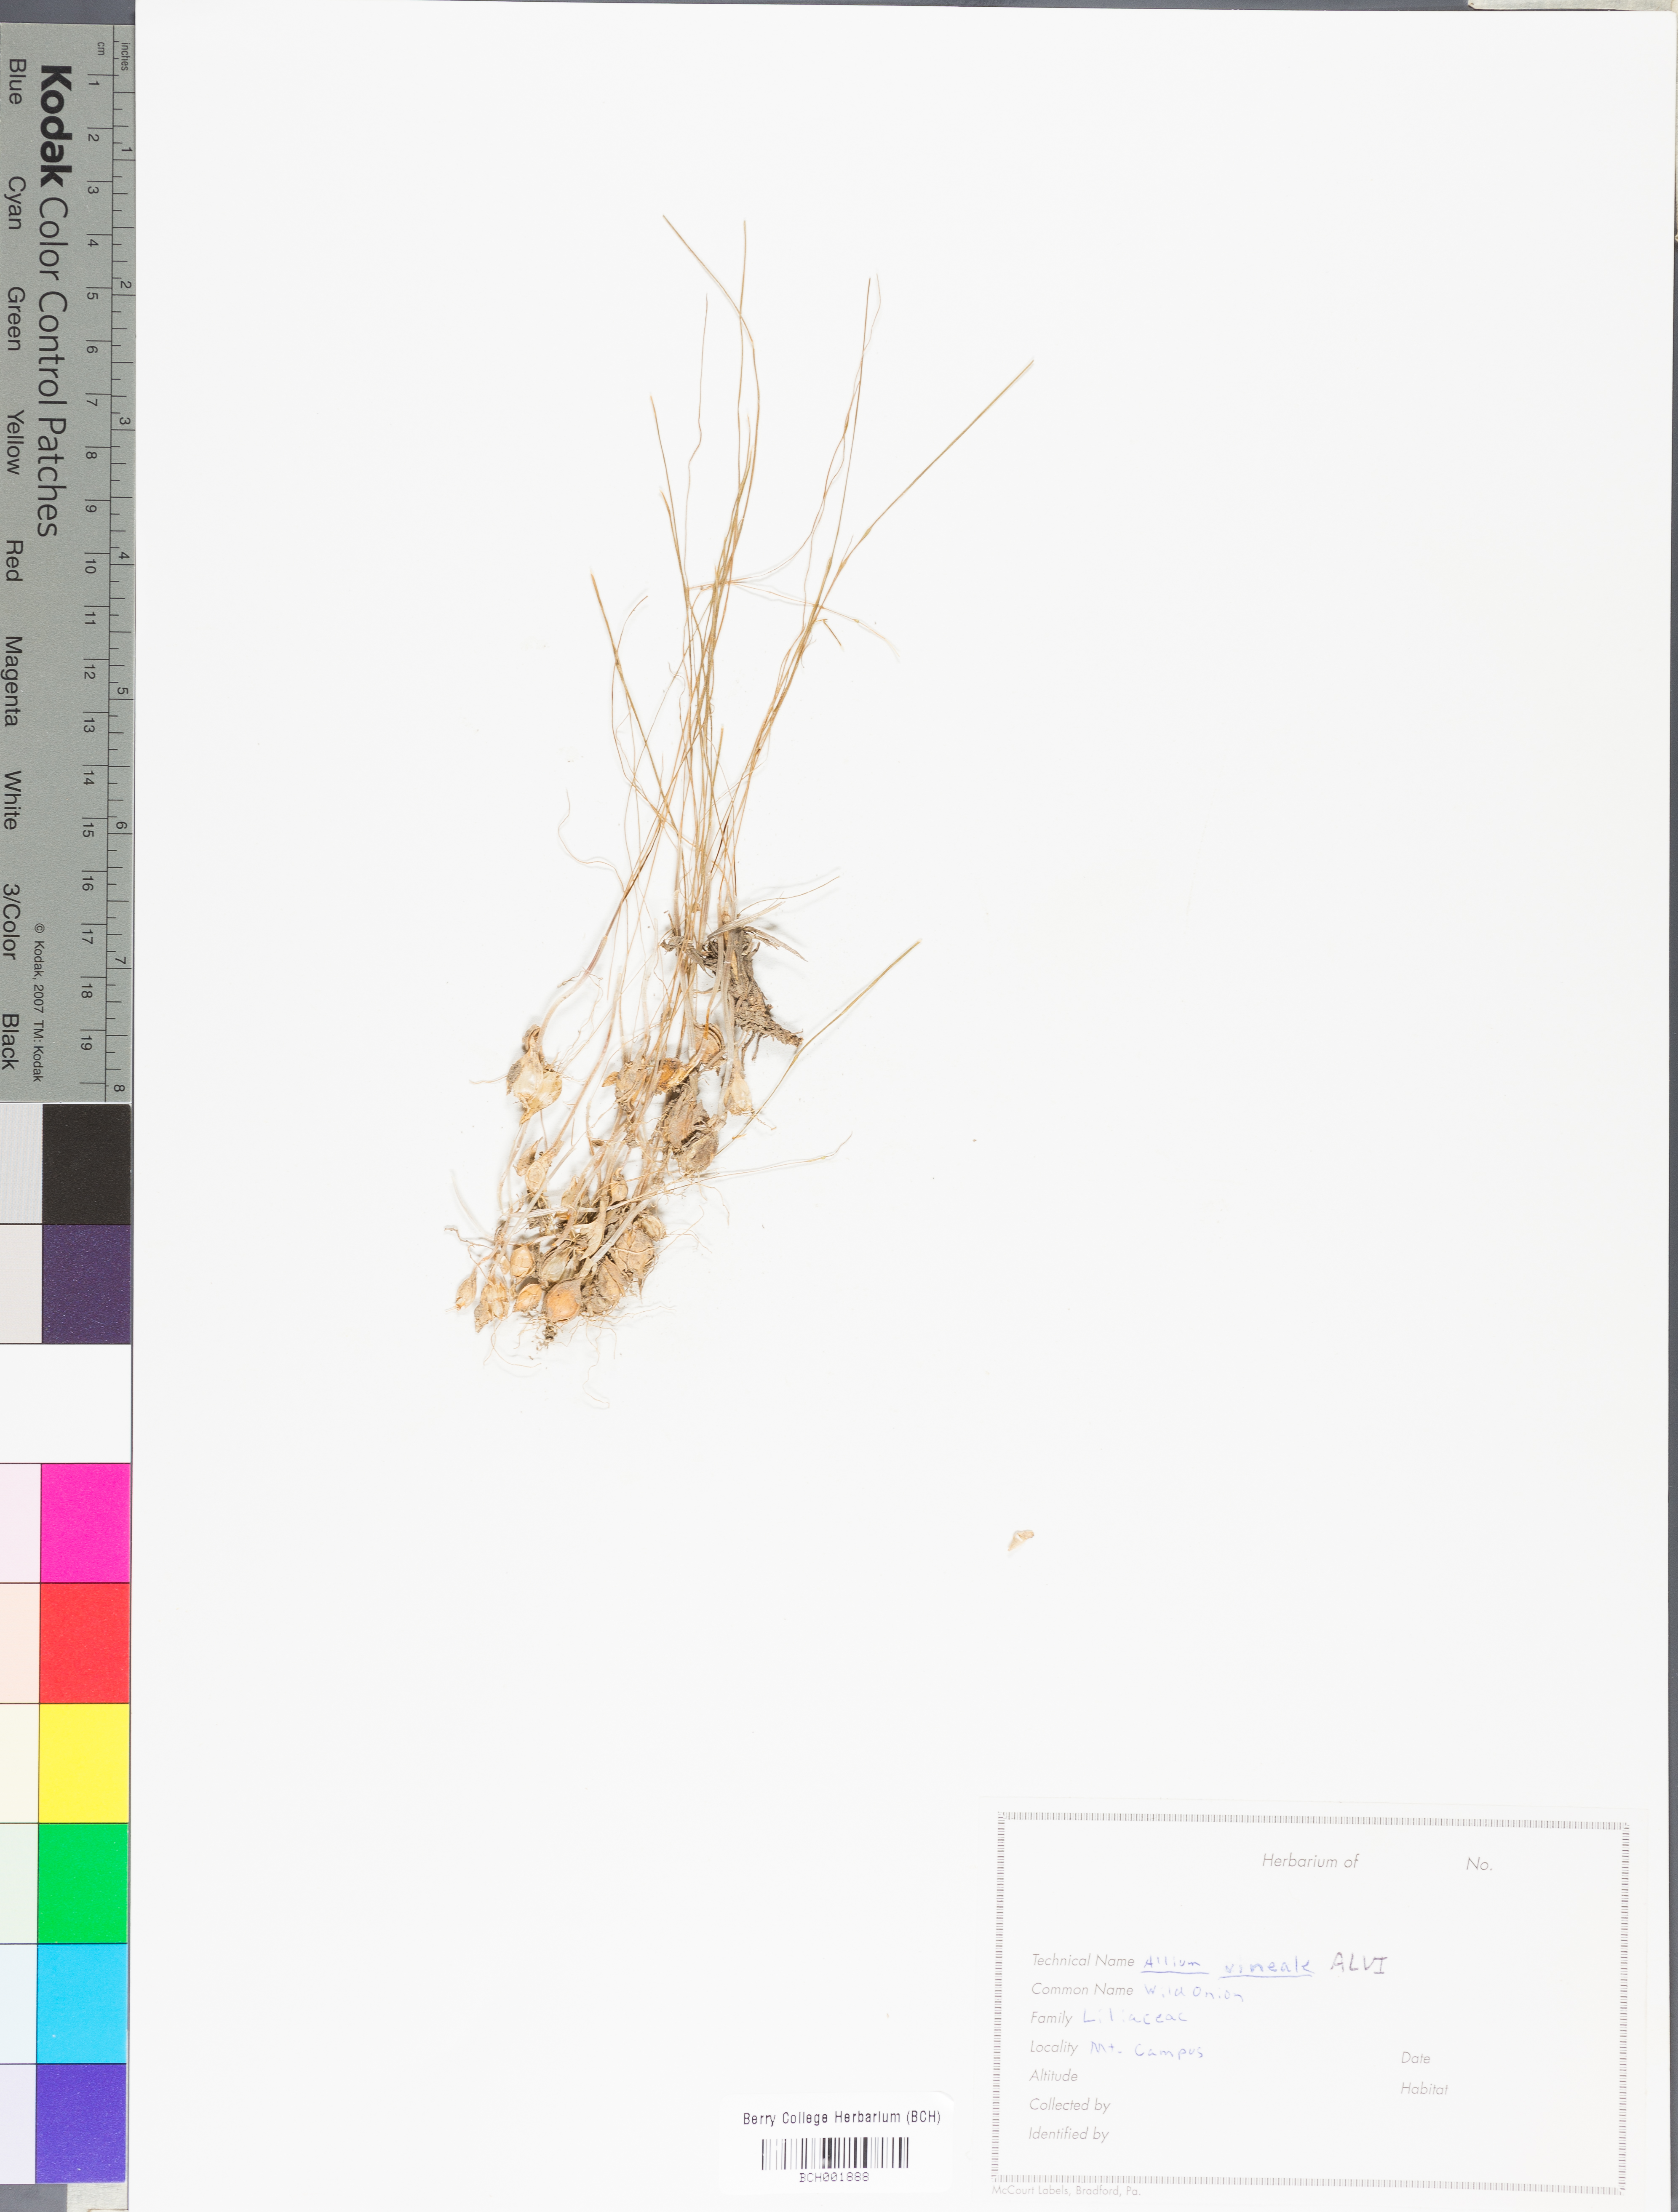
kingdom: Plantae
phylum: Tracheophyta
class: Liliopsida
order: Asparagales
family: Amaryllidaceae
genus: Allium
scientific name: Allium vineale
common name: Crow garlic
